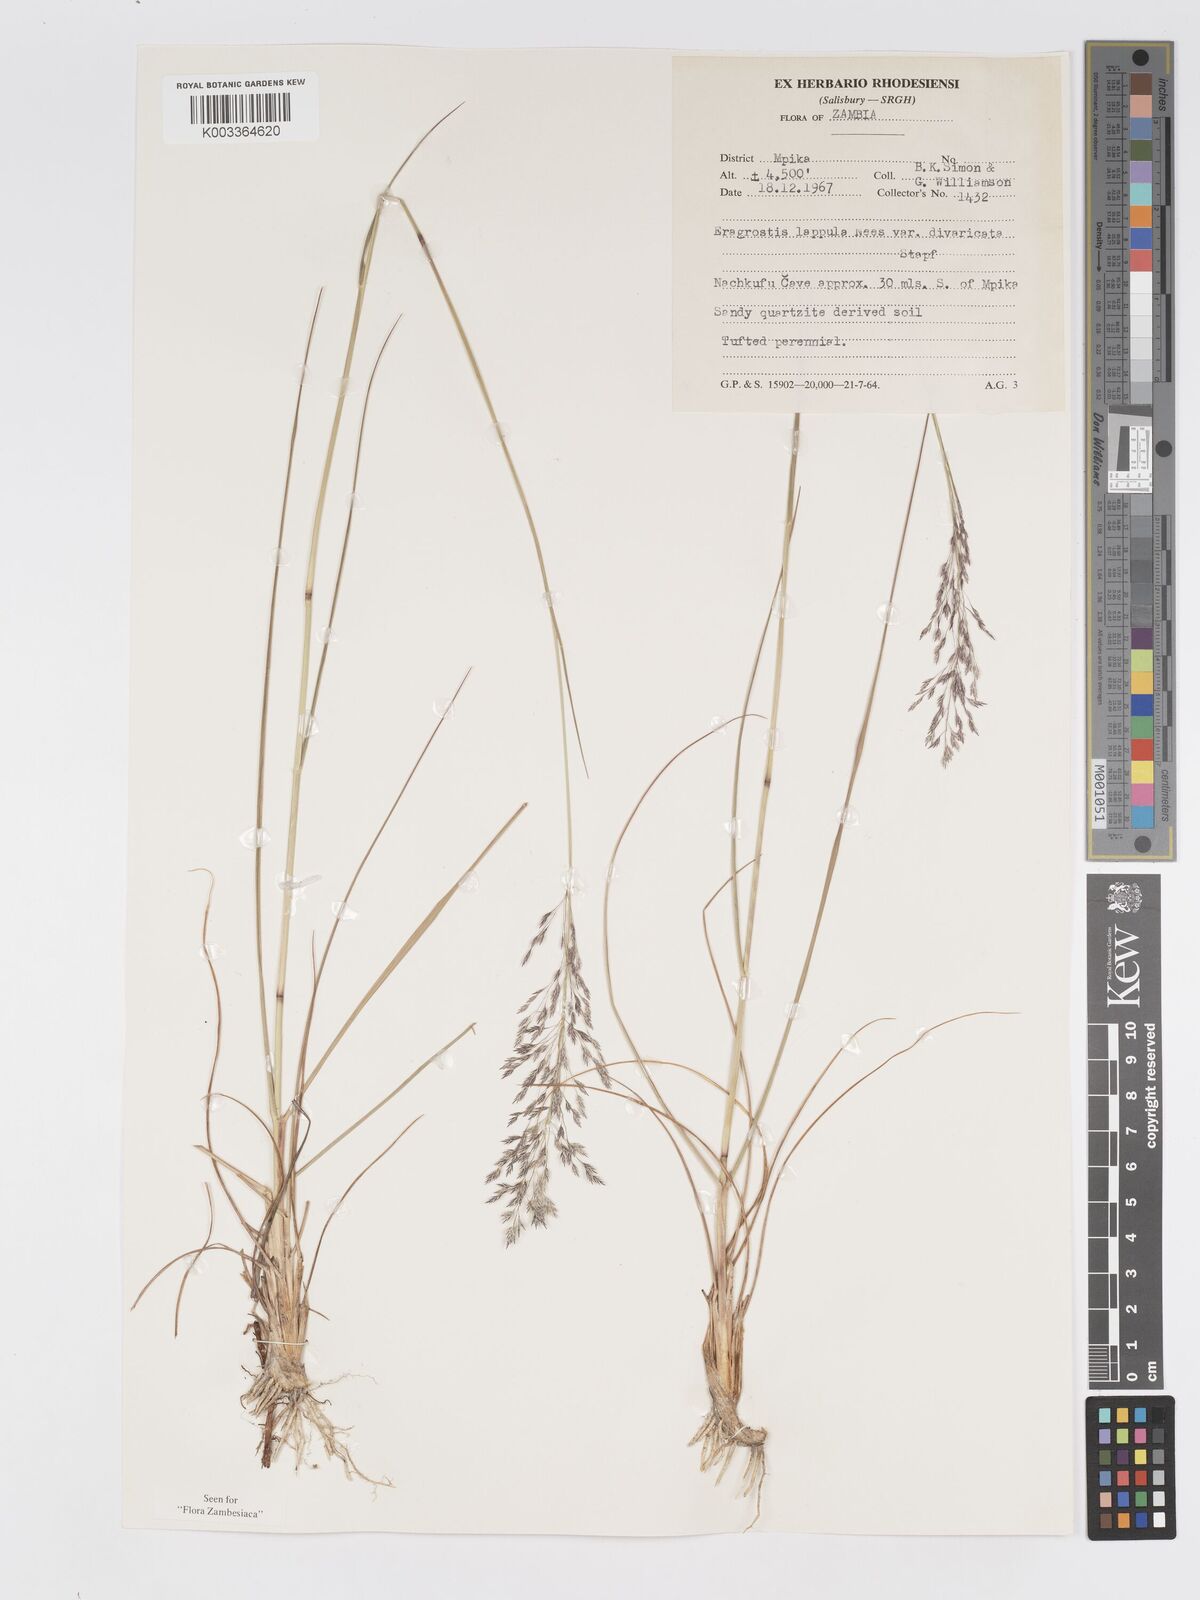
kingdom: Plantae
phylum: Tracheophyta
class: Liliopsida
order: Poales
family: Poaceae
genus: Eragrostis
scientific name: Eragrostis lappula
